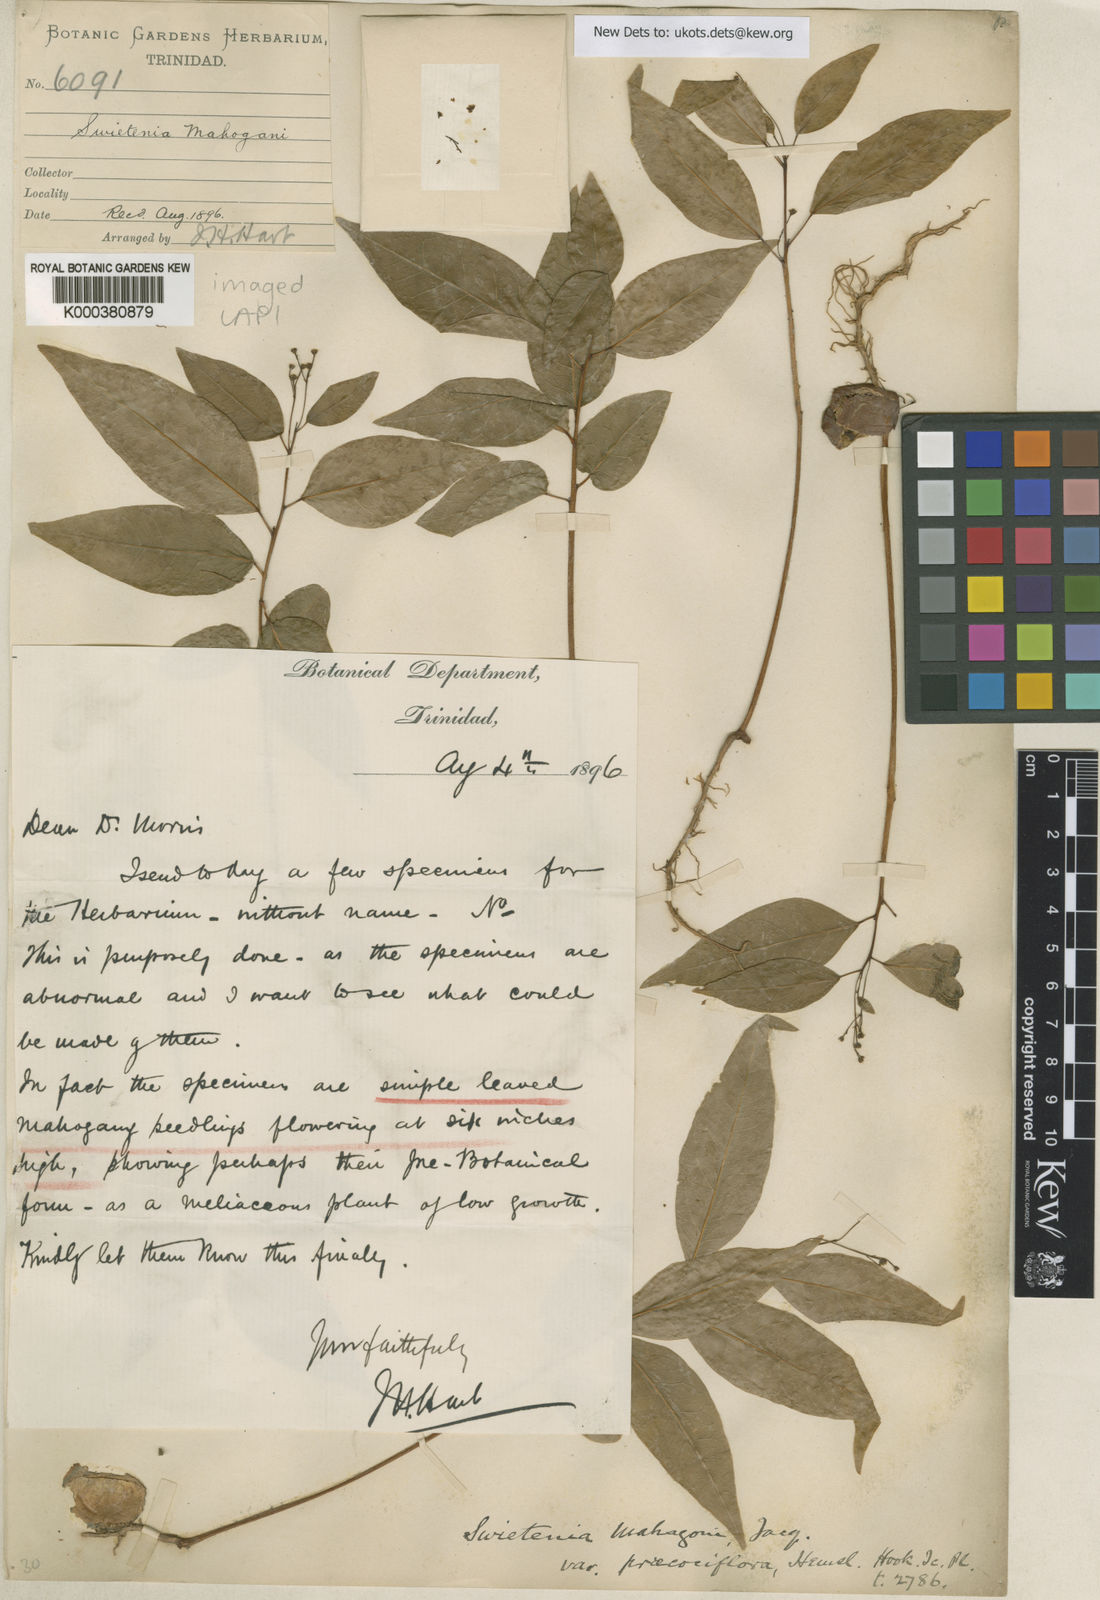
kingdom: Plantae
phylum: Tracheophyta
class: Magnoliopsida
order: Sapindales
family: Meliaceae
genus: Swietenia
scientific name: Swietenia mahagoni
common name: West indian mahogany
